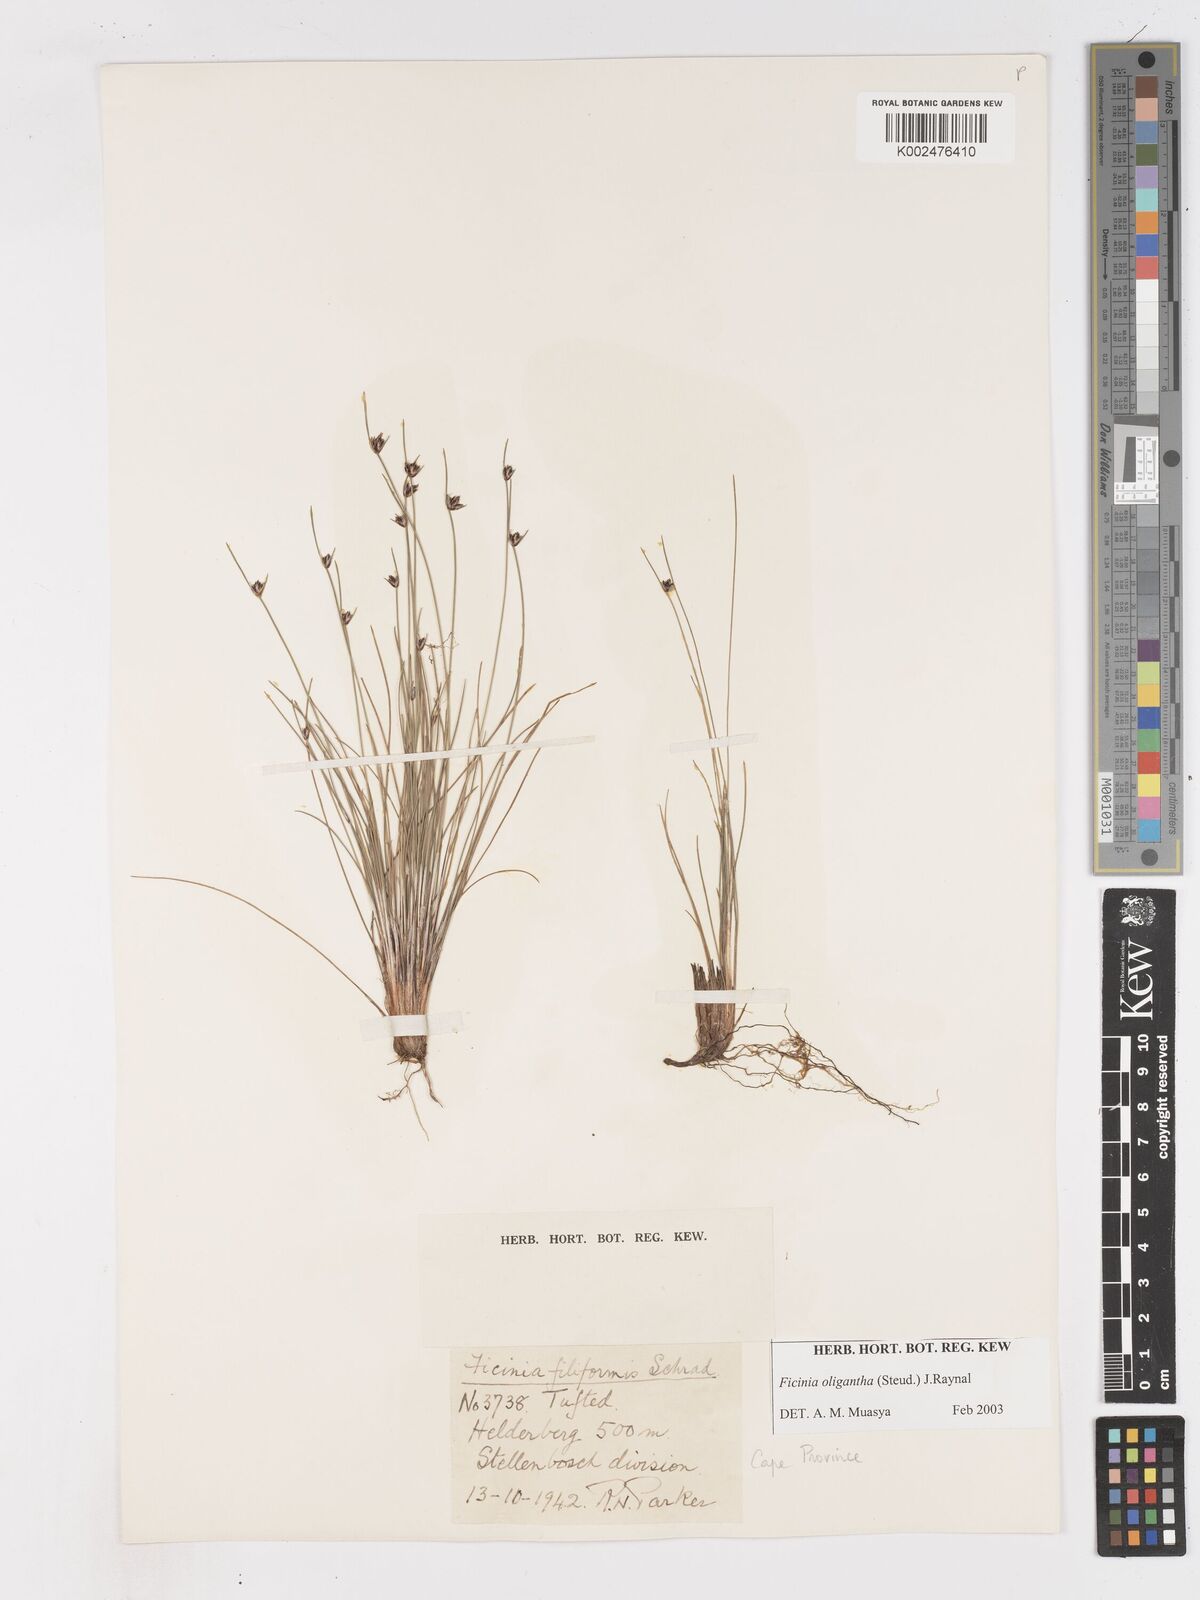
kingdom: Plantae
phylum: Tracheophyta
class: Liliopsida
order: Poales
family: Cyperaceae
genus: Ficinia
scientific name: Ficinia
